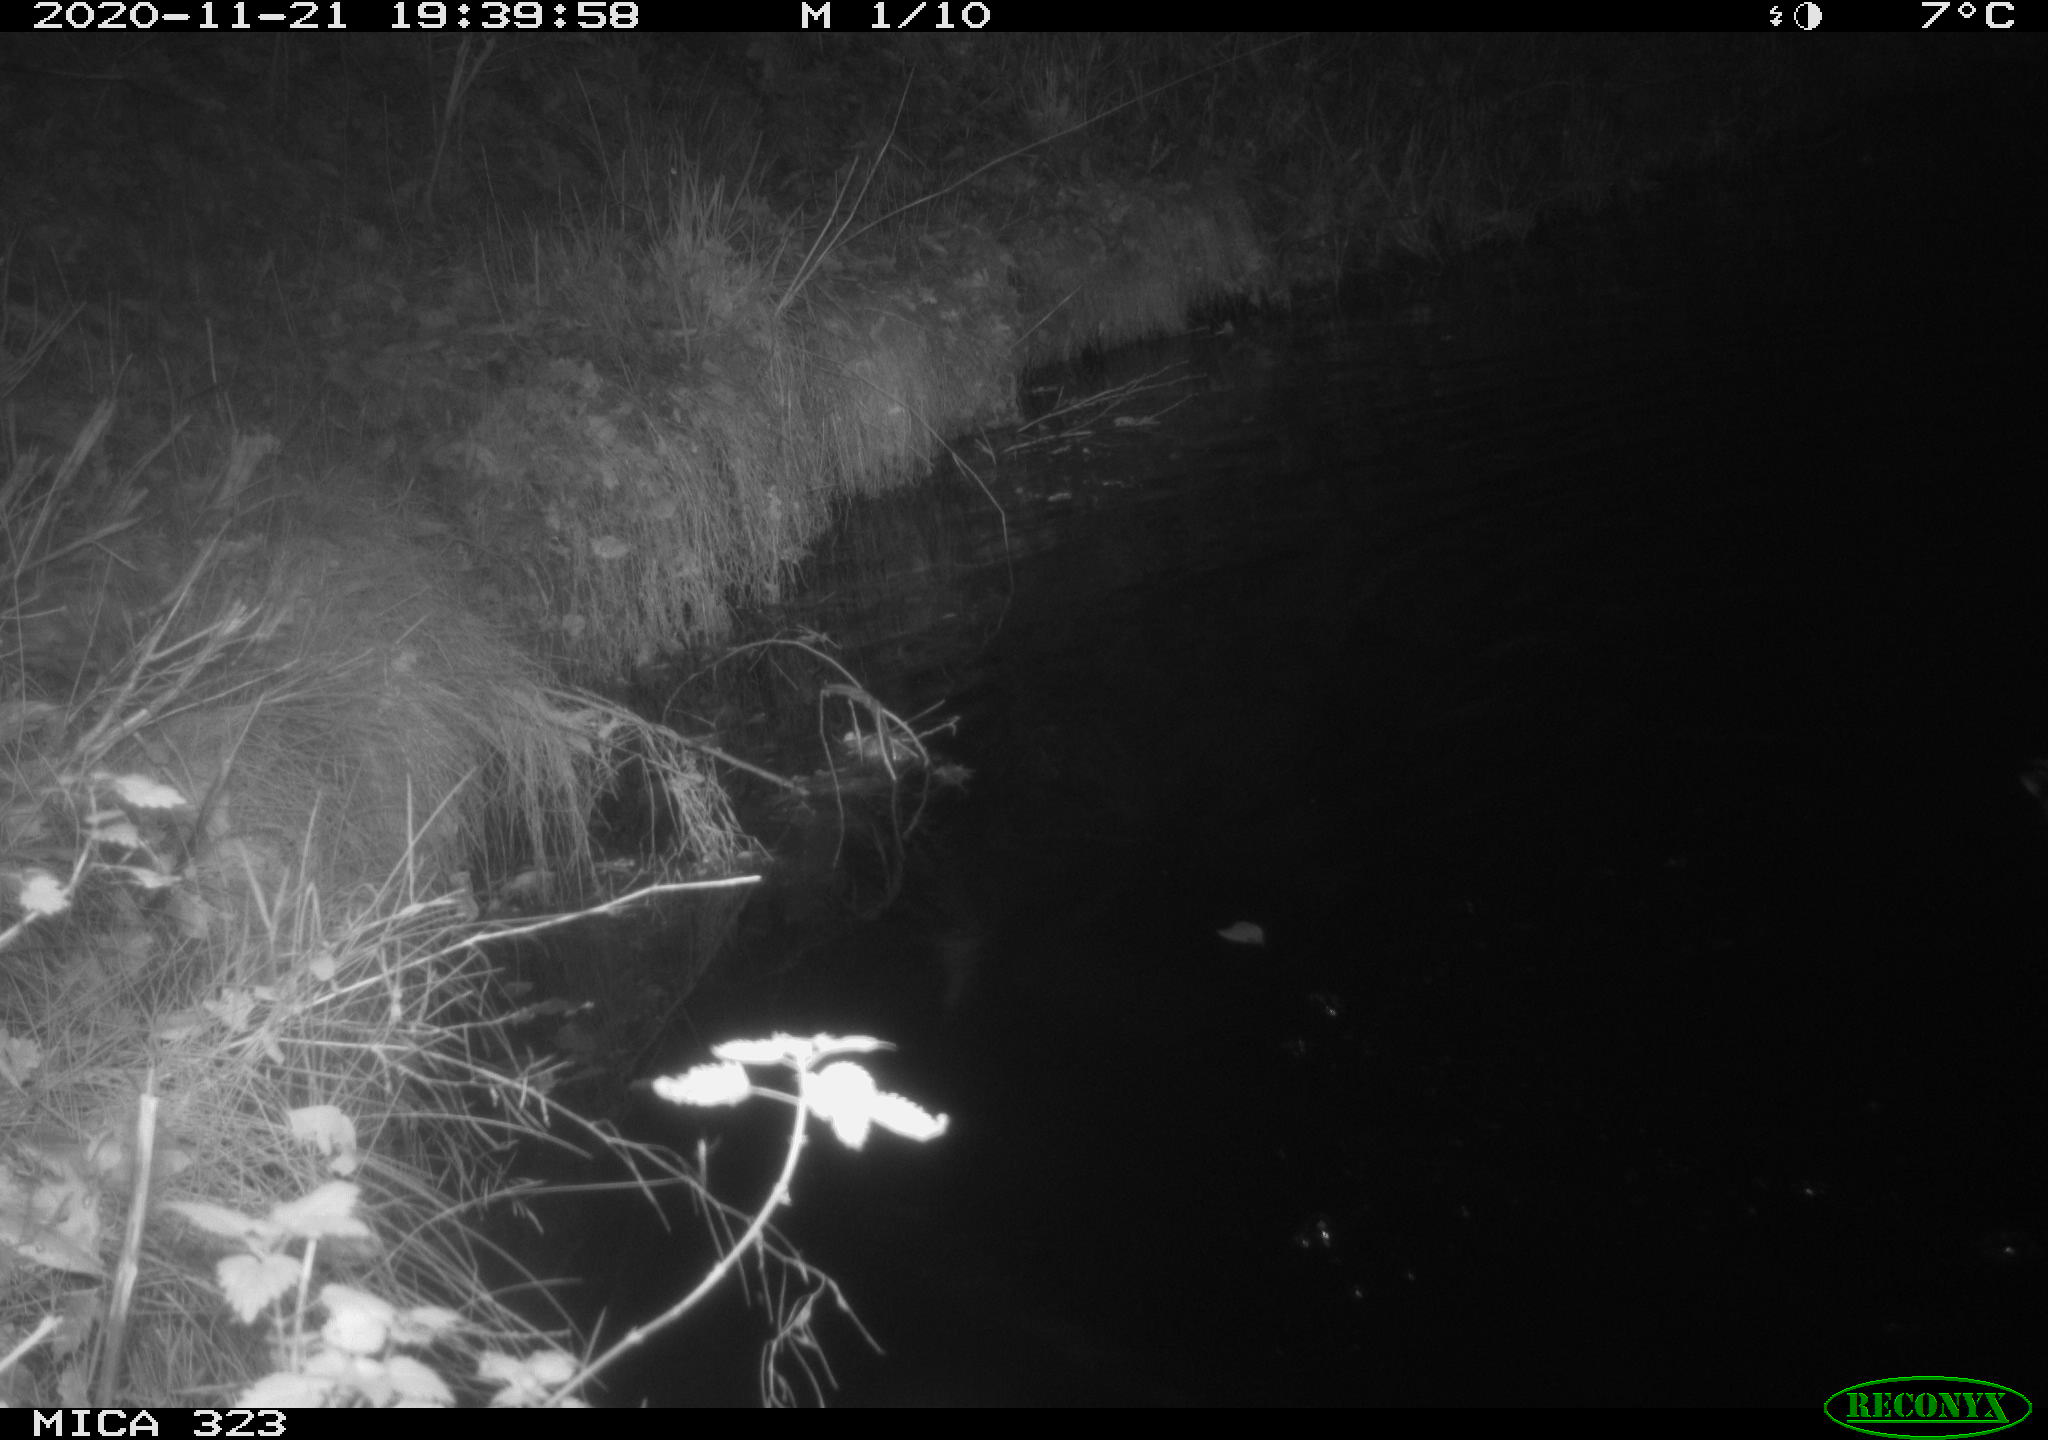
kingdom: Animalia
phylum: Chordata
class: Aves
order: Anseriformes
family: Anatidae
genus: Anas
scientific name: Anas platyrhynchos
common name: Mallard
